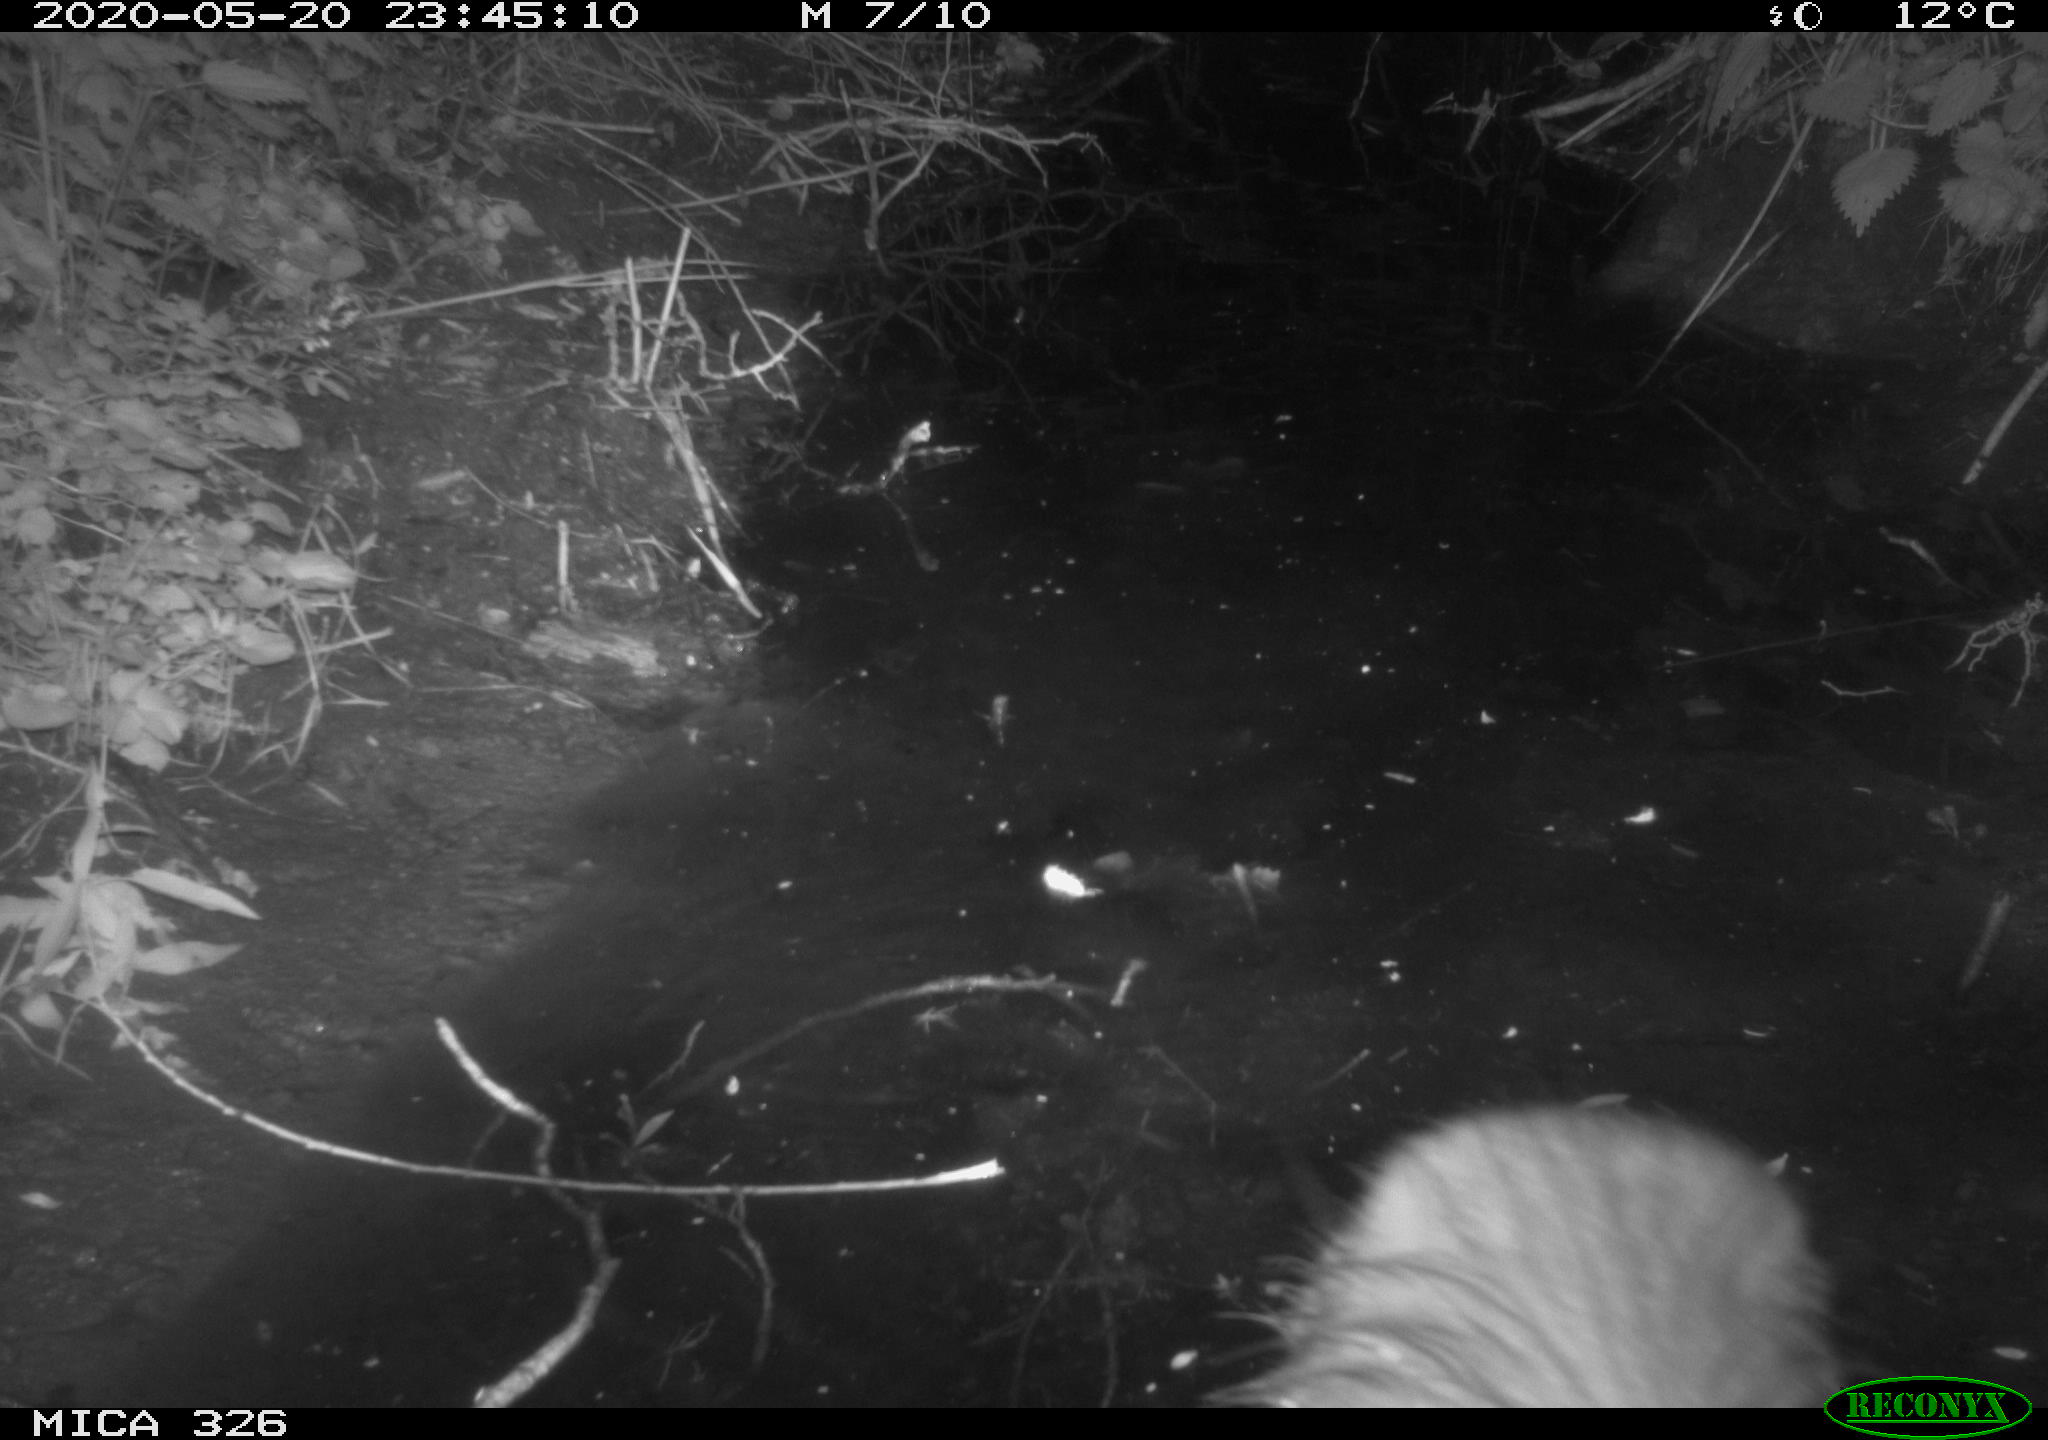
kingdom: Animalia
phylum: Chordata
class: Mammalia
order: Rodentia
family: Myocastoridae
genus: Myocastor
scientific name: Myocastor coypus
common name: Coypu
